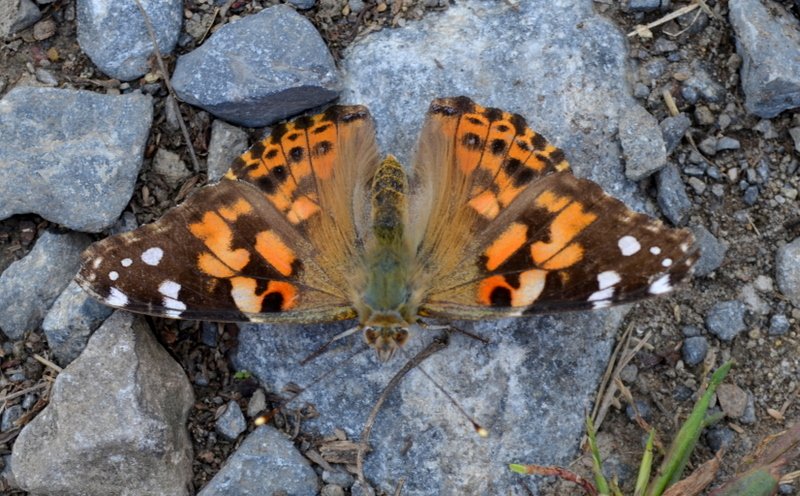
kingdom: Animalia
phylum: Arthropoda
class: Insecta
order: Lepidoptera
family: Nymphalidae
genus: Vanessa
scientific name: Vanessa cardui
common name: Painted Lady
